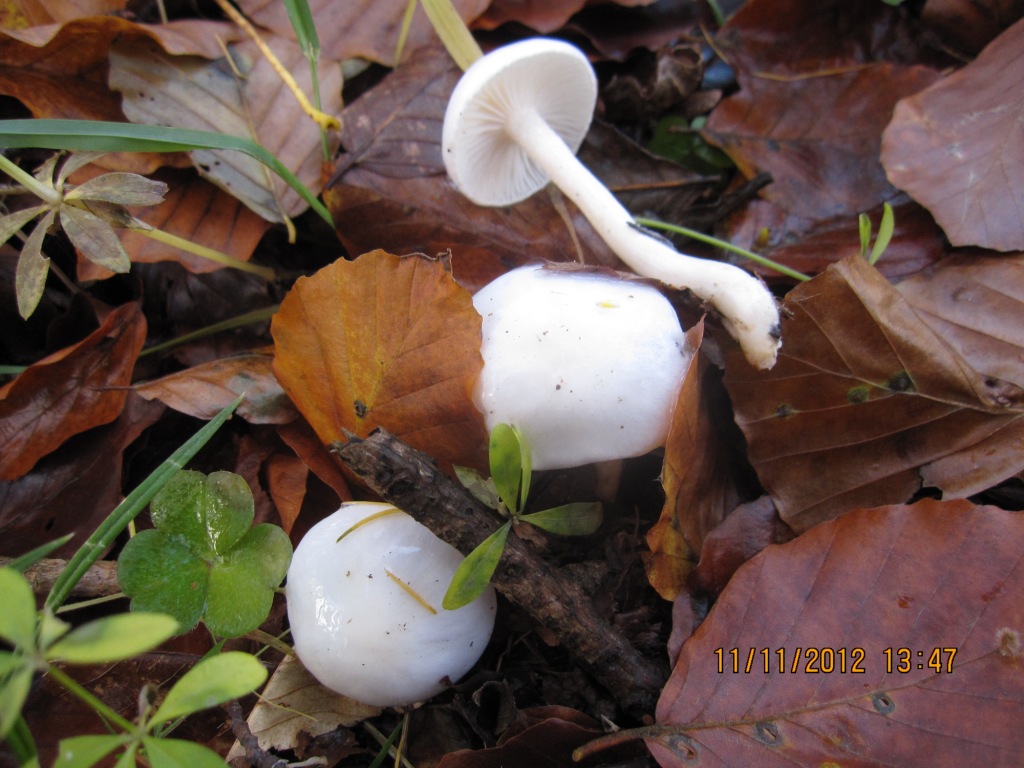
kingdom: Fungi
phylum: Basidiomycota
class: Agaricomycetes
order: Agaricales
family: Hygrophoraceae
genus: Hygrophorus
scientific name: Hygrophorus eburneus
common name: elfenbens-sneglehat
